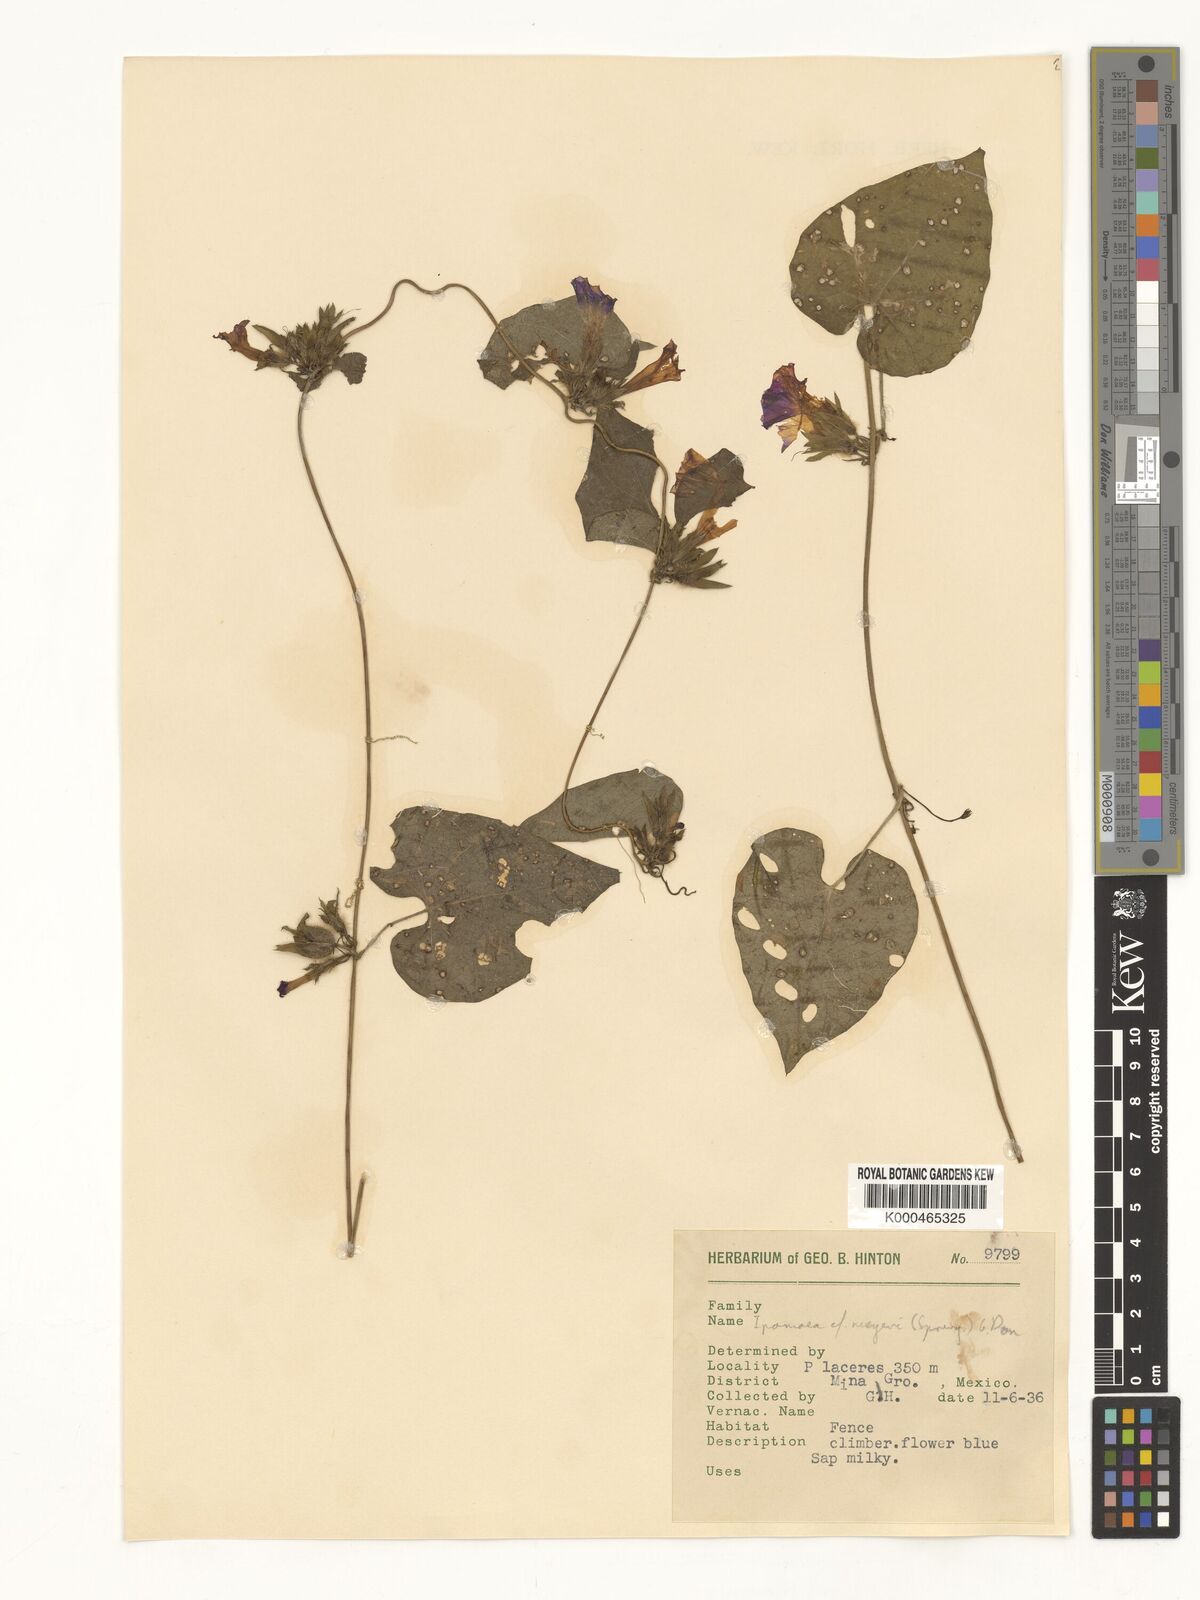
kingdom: Plantae
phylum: Tracheophyta
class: Magnoliopsida
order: Solanales
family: Convolvulaceae
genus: Ipomoea
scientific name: Ipomoea meyeri
